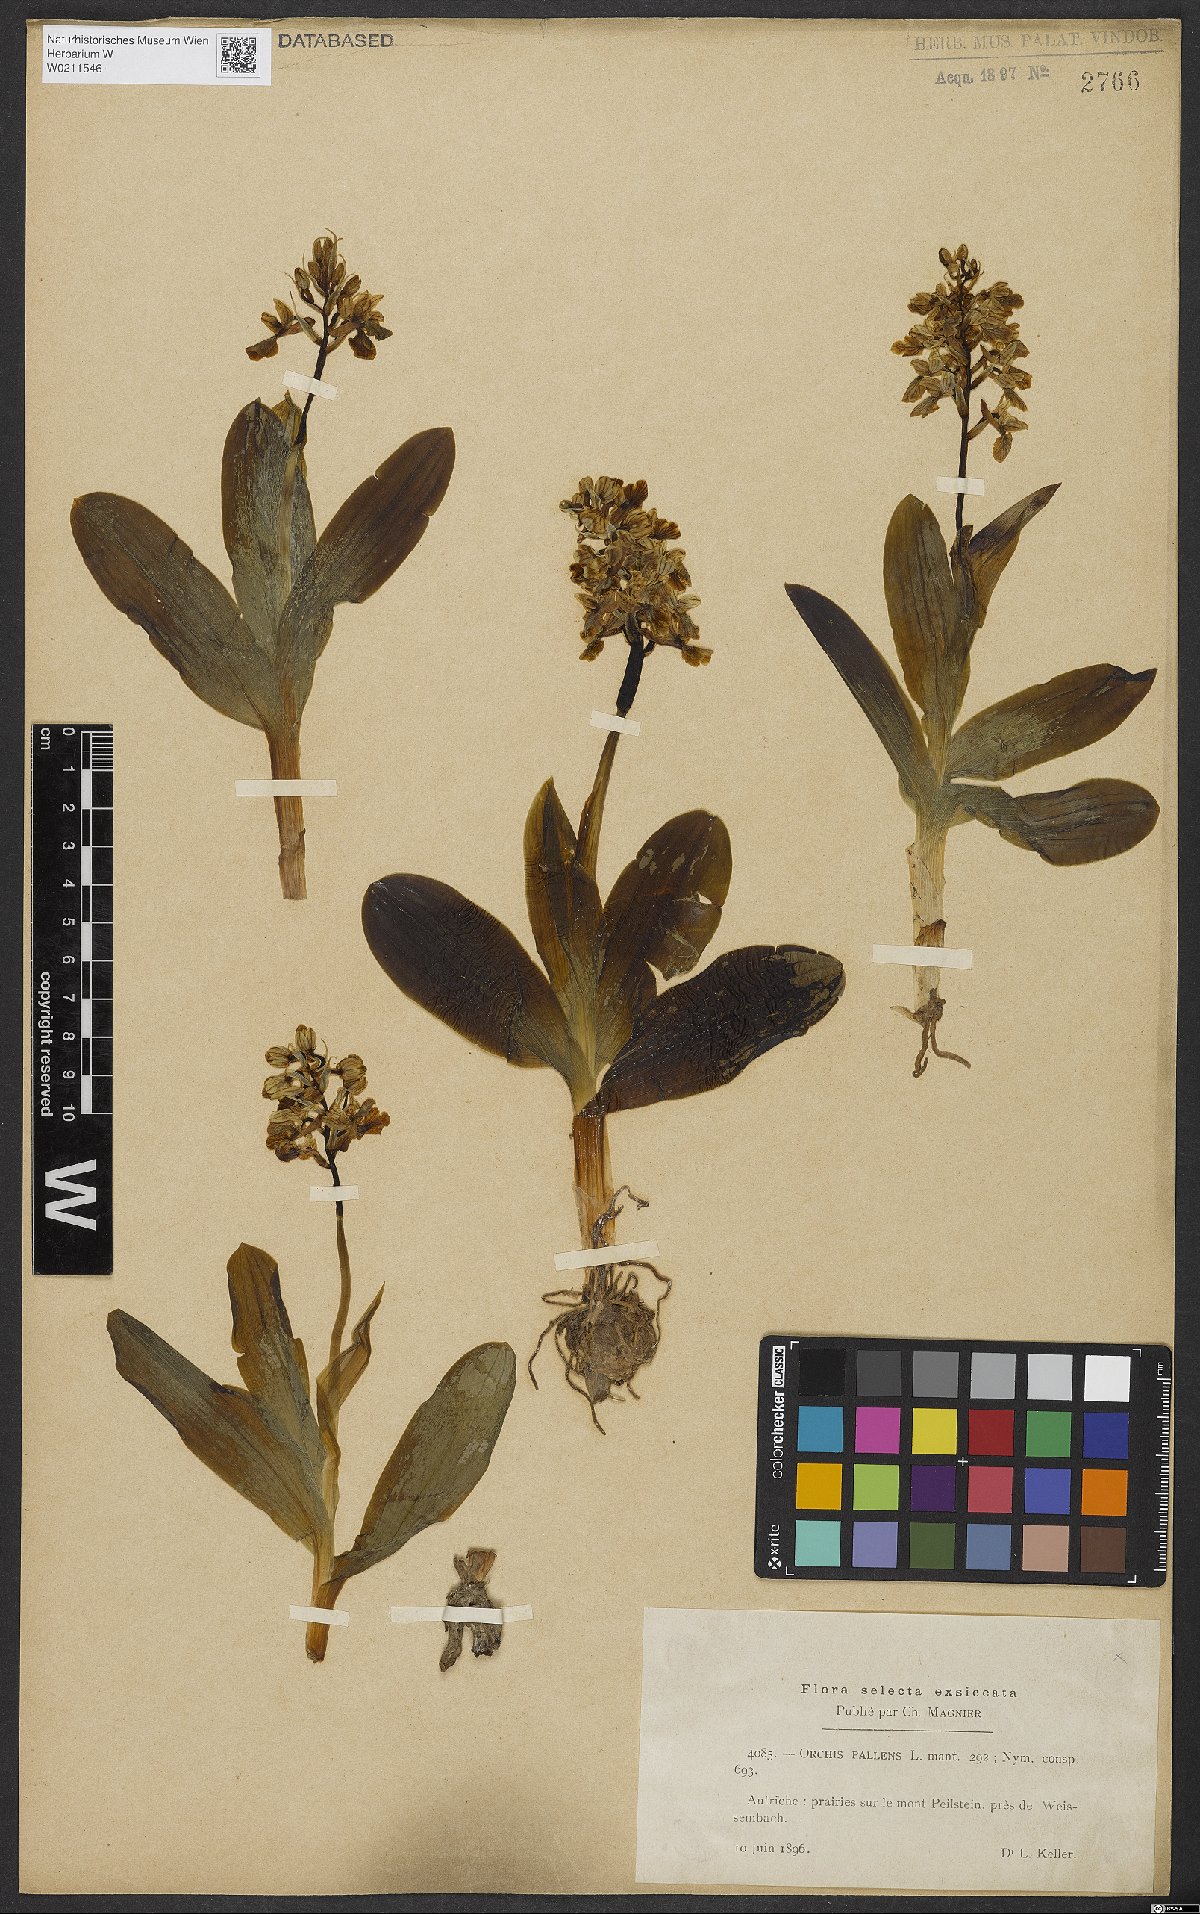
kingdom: Plantae
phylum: Tracheophyta
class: Liliopsida
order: Asparagales
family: Orchidaceae
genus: Orchis
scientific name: Orchis pallens
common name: Pale-flowered orchid
